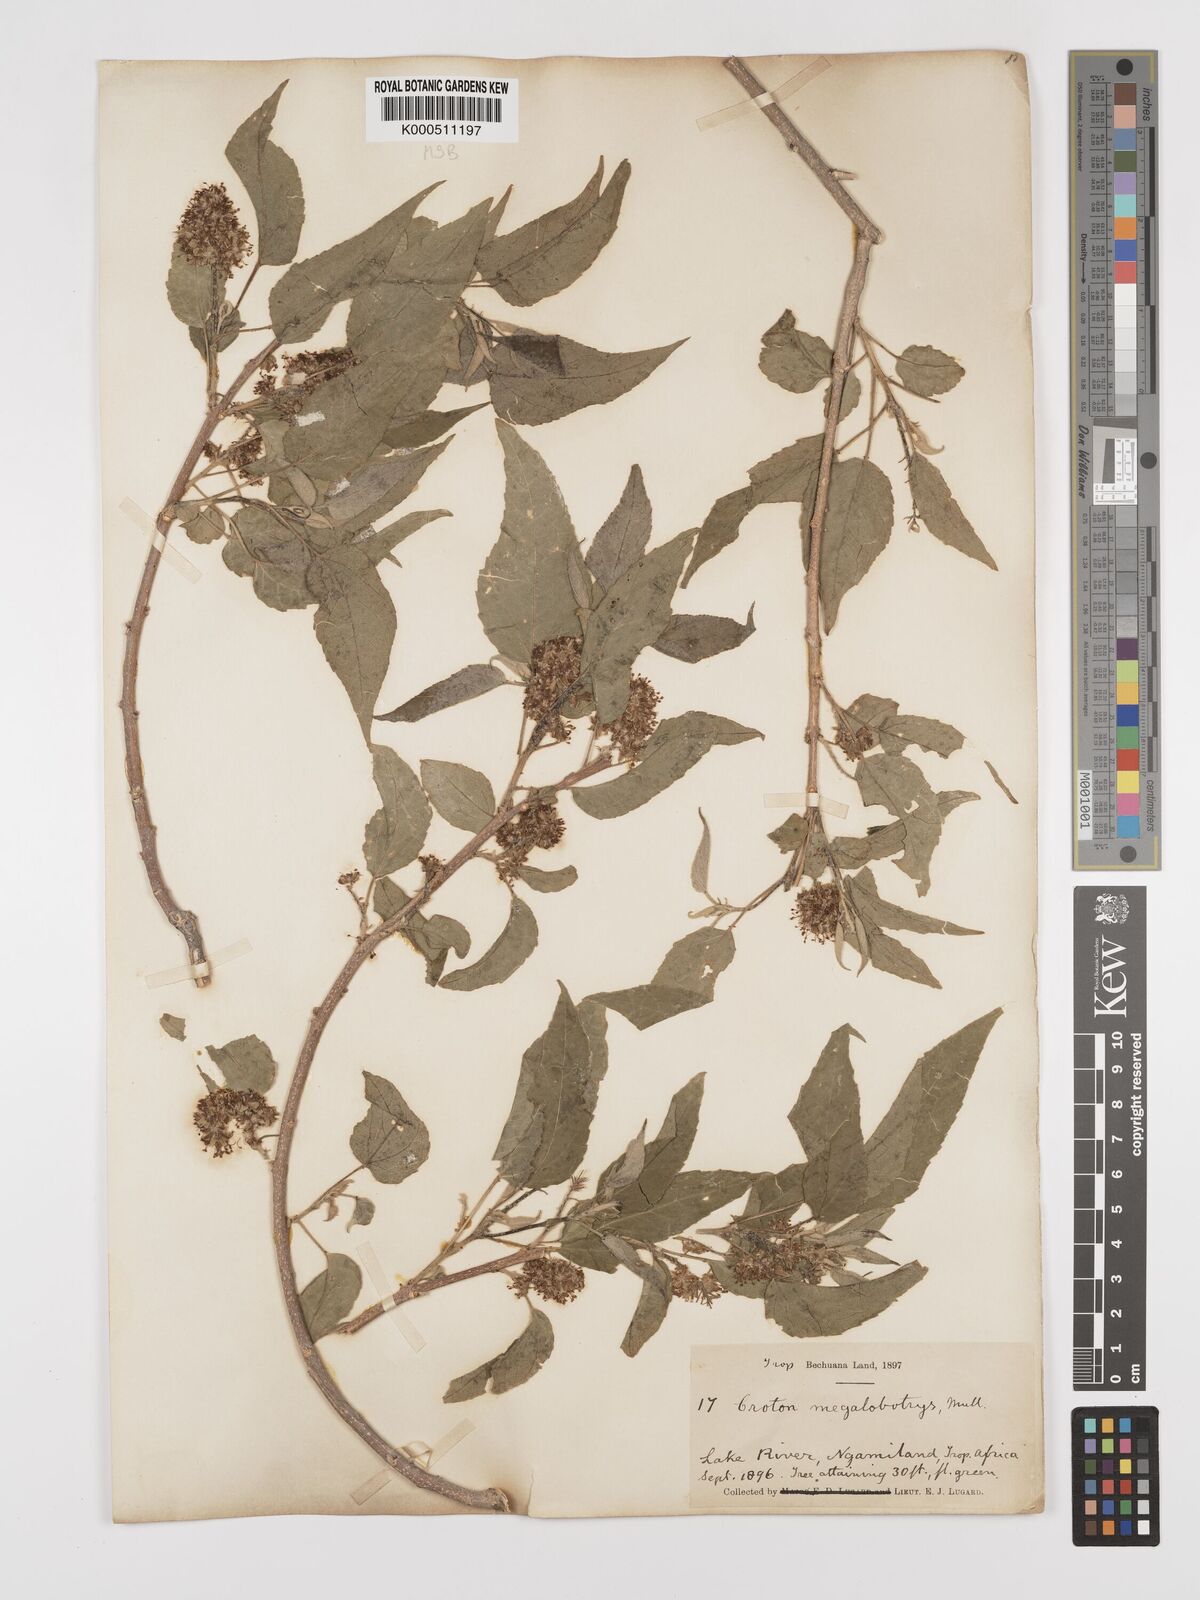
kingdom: Plantae
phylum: Tracheophyta
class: Magnoliopsida
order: Malpighiales
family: Euphorbiaceae
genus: Croton
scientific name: Croton
